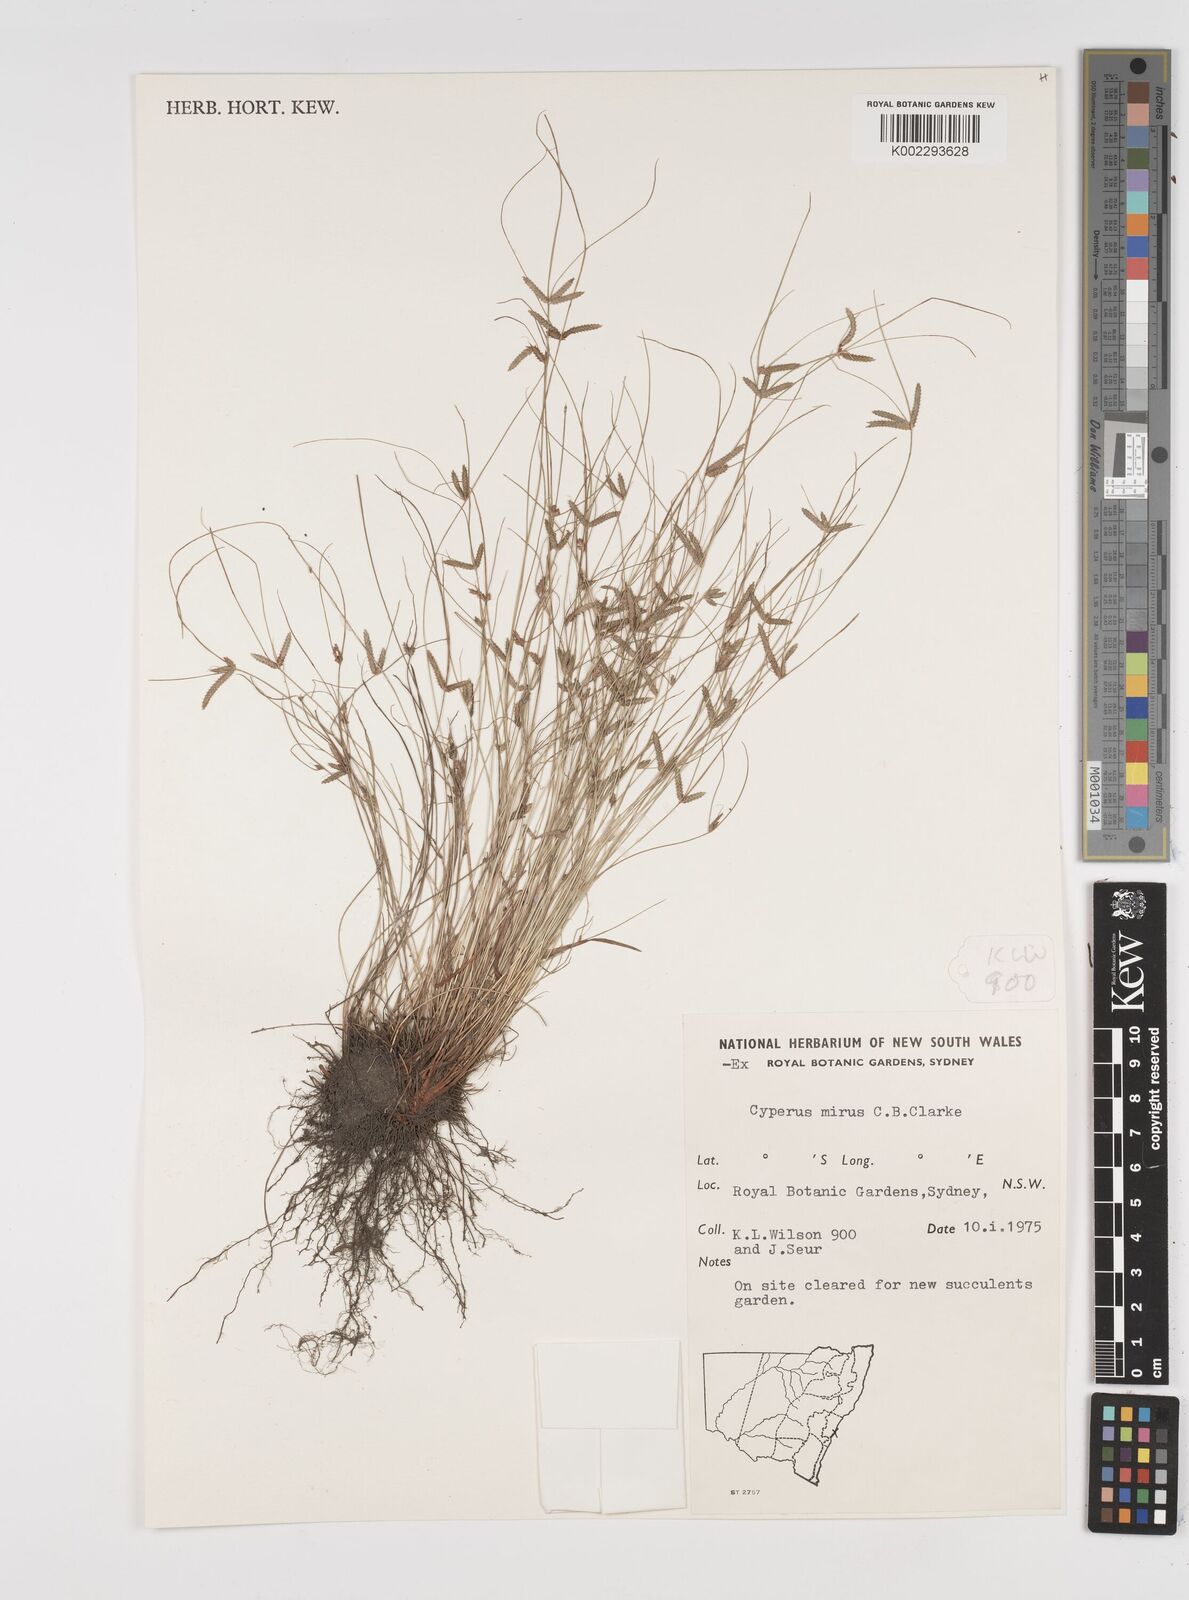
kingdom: Plantae
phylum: Tracheophyta
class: Liliopsida
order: Poales
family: Cyperaceae
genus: Cyperus
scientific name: Cyperus mirus
